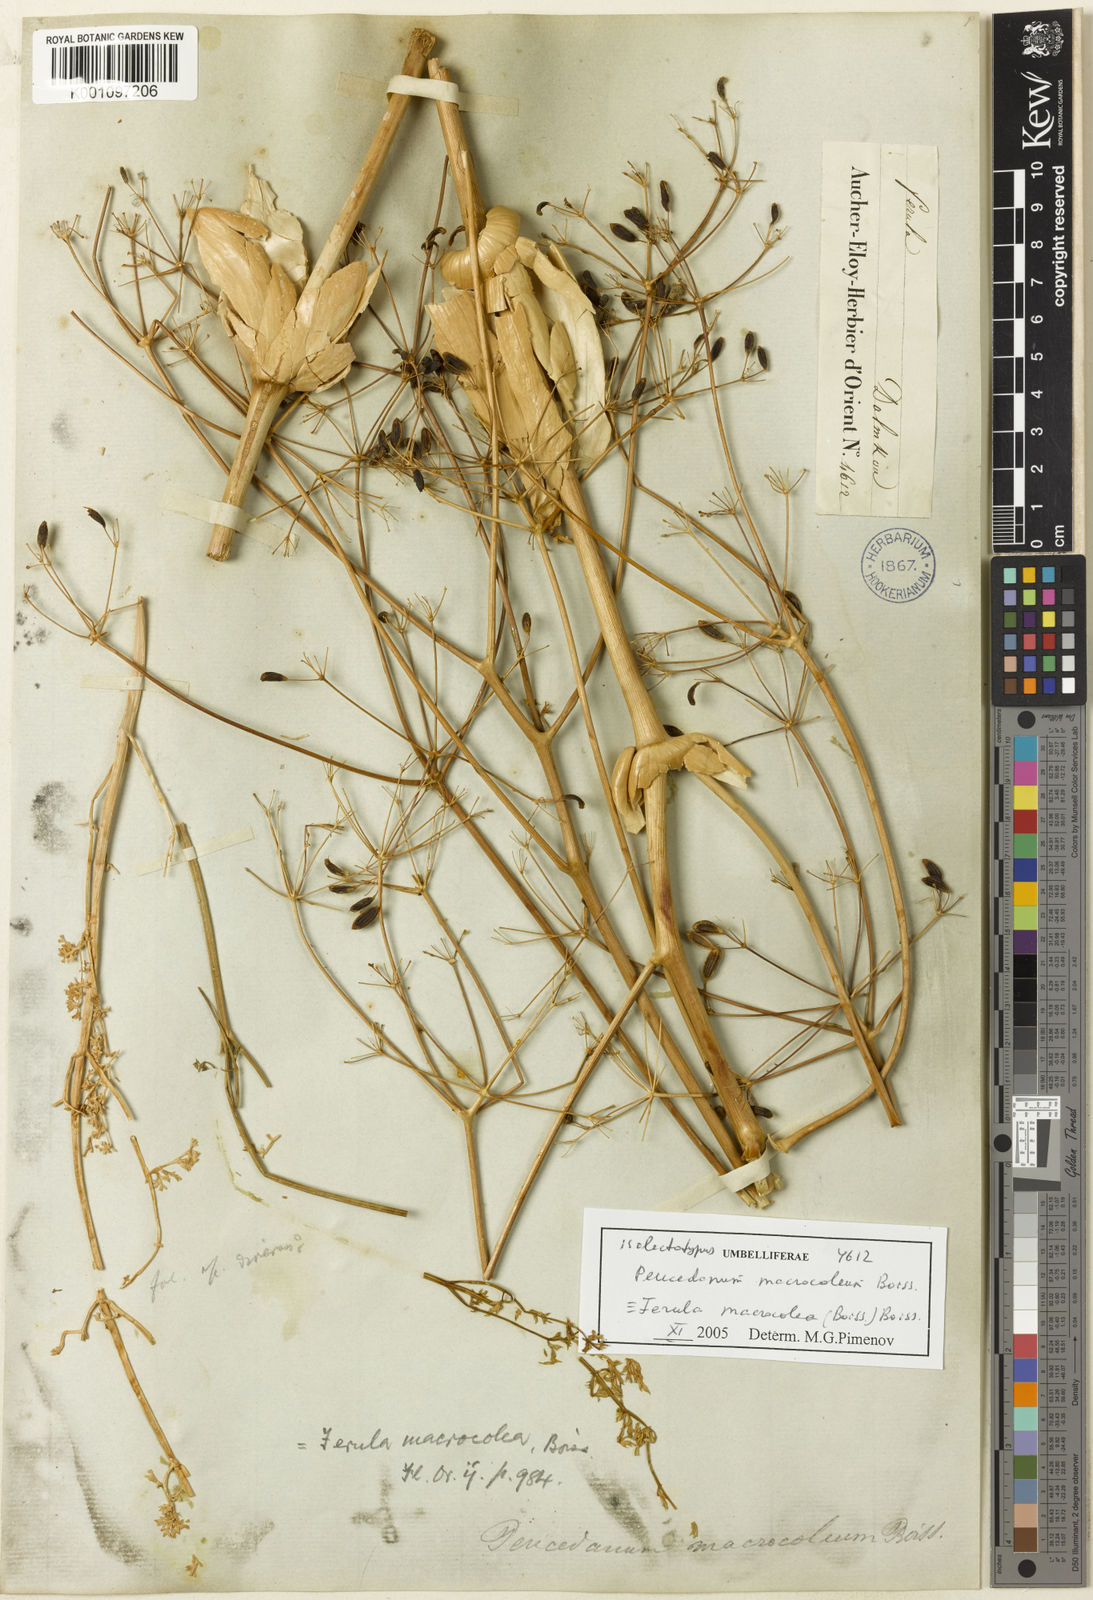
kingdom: Plantae
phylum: Tracheophyta
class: Magnoliopsida
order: Apiales
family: Apiaceae
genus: Ferula
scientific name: Ferula macrocolea
